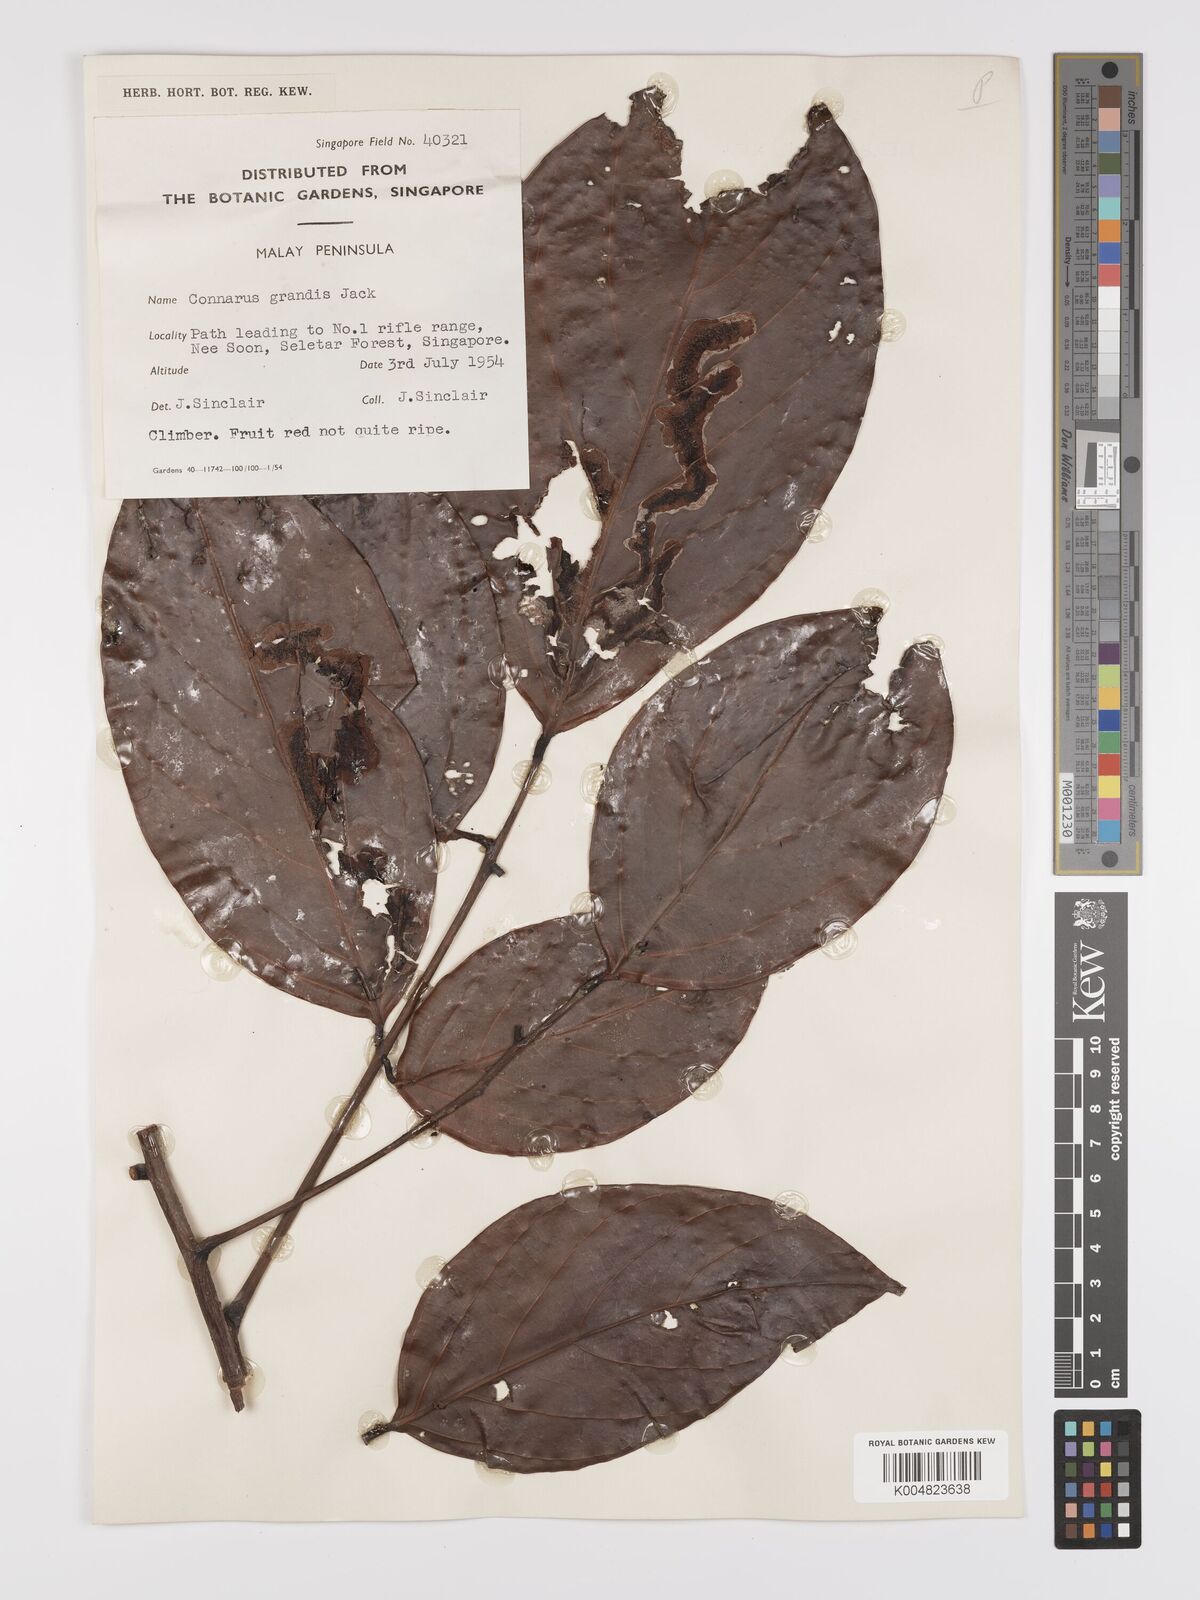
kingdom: Plantae
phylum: Tracheophyta
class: Magnoliopsida
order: Oxalidales
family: Connaraceae
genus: Connarus
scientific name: Connarus grandis
